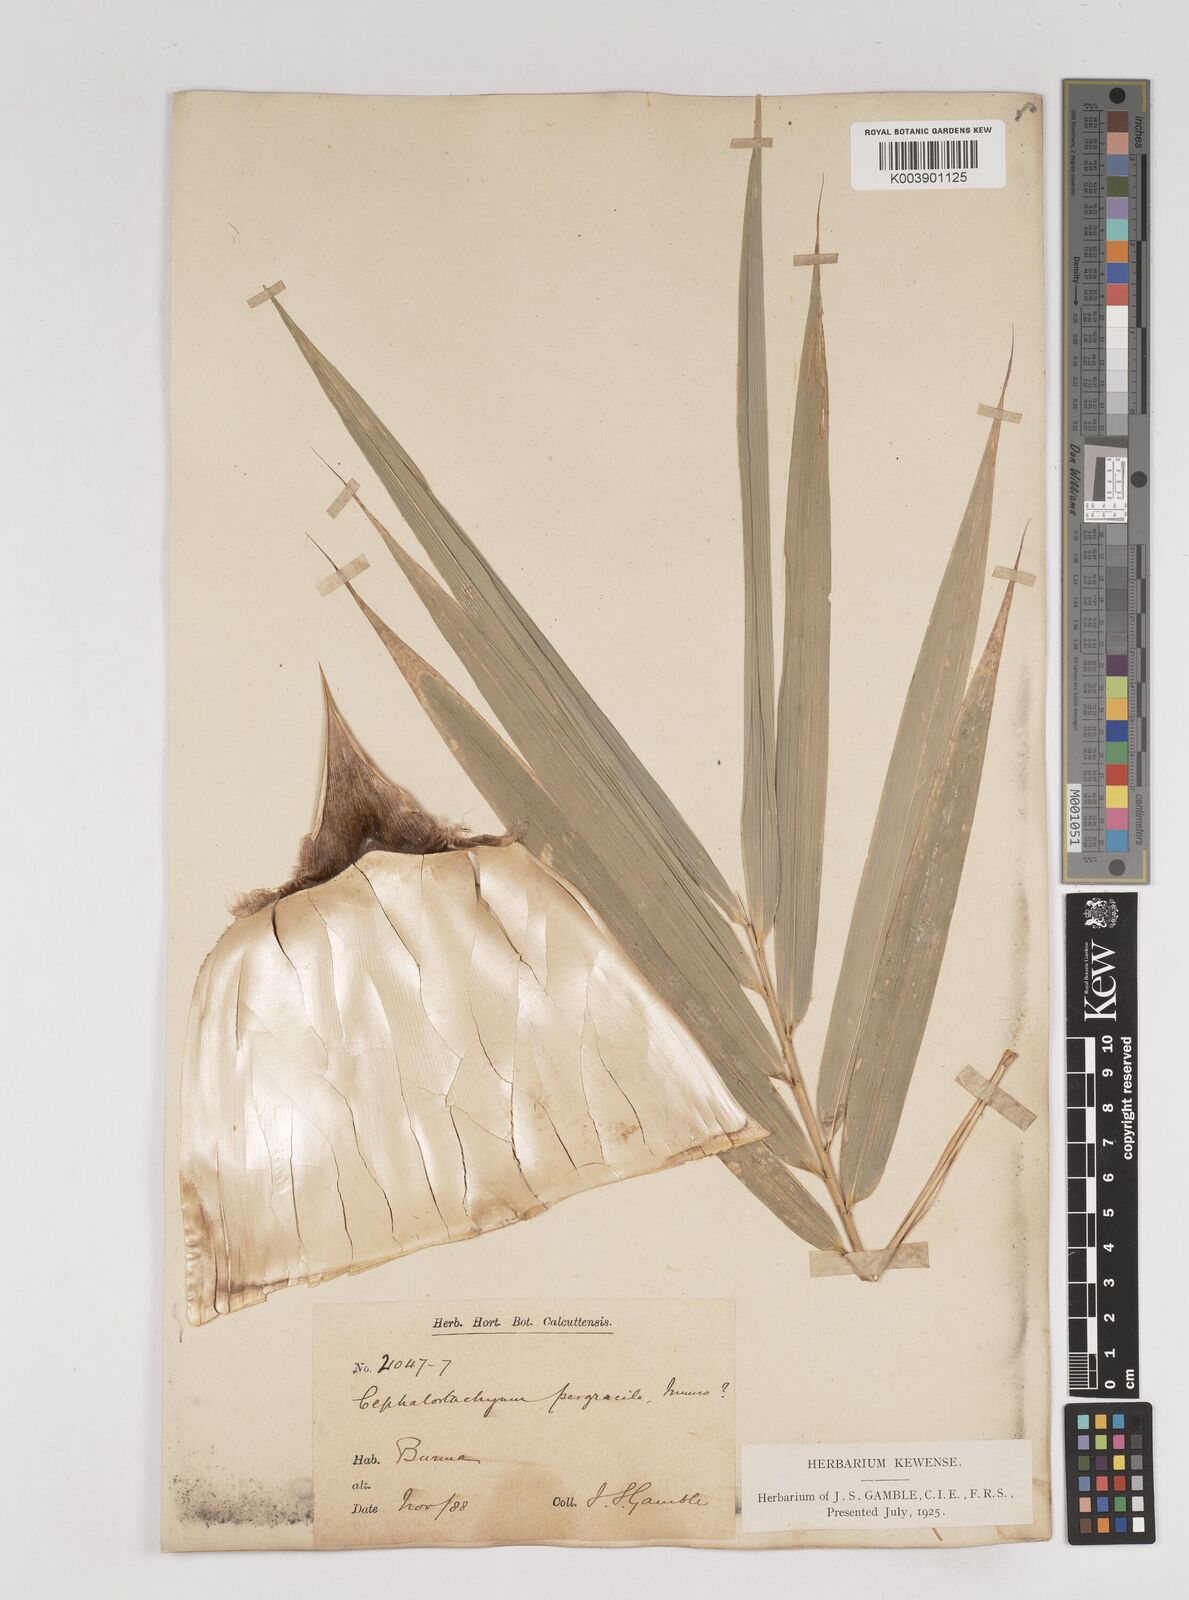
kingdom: Plantae
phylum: Tracheophyta
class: Liliopsida
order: Poales
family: Poaceae
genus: Schizostachyum
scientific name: Schizostachyum pergracile
